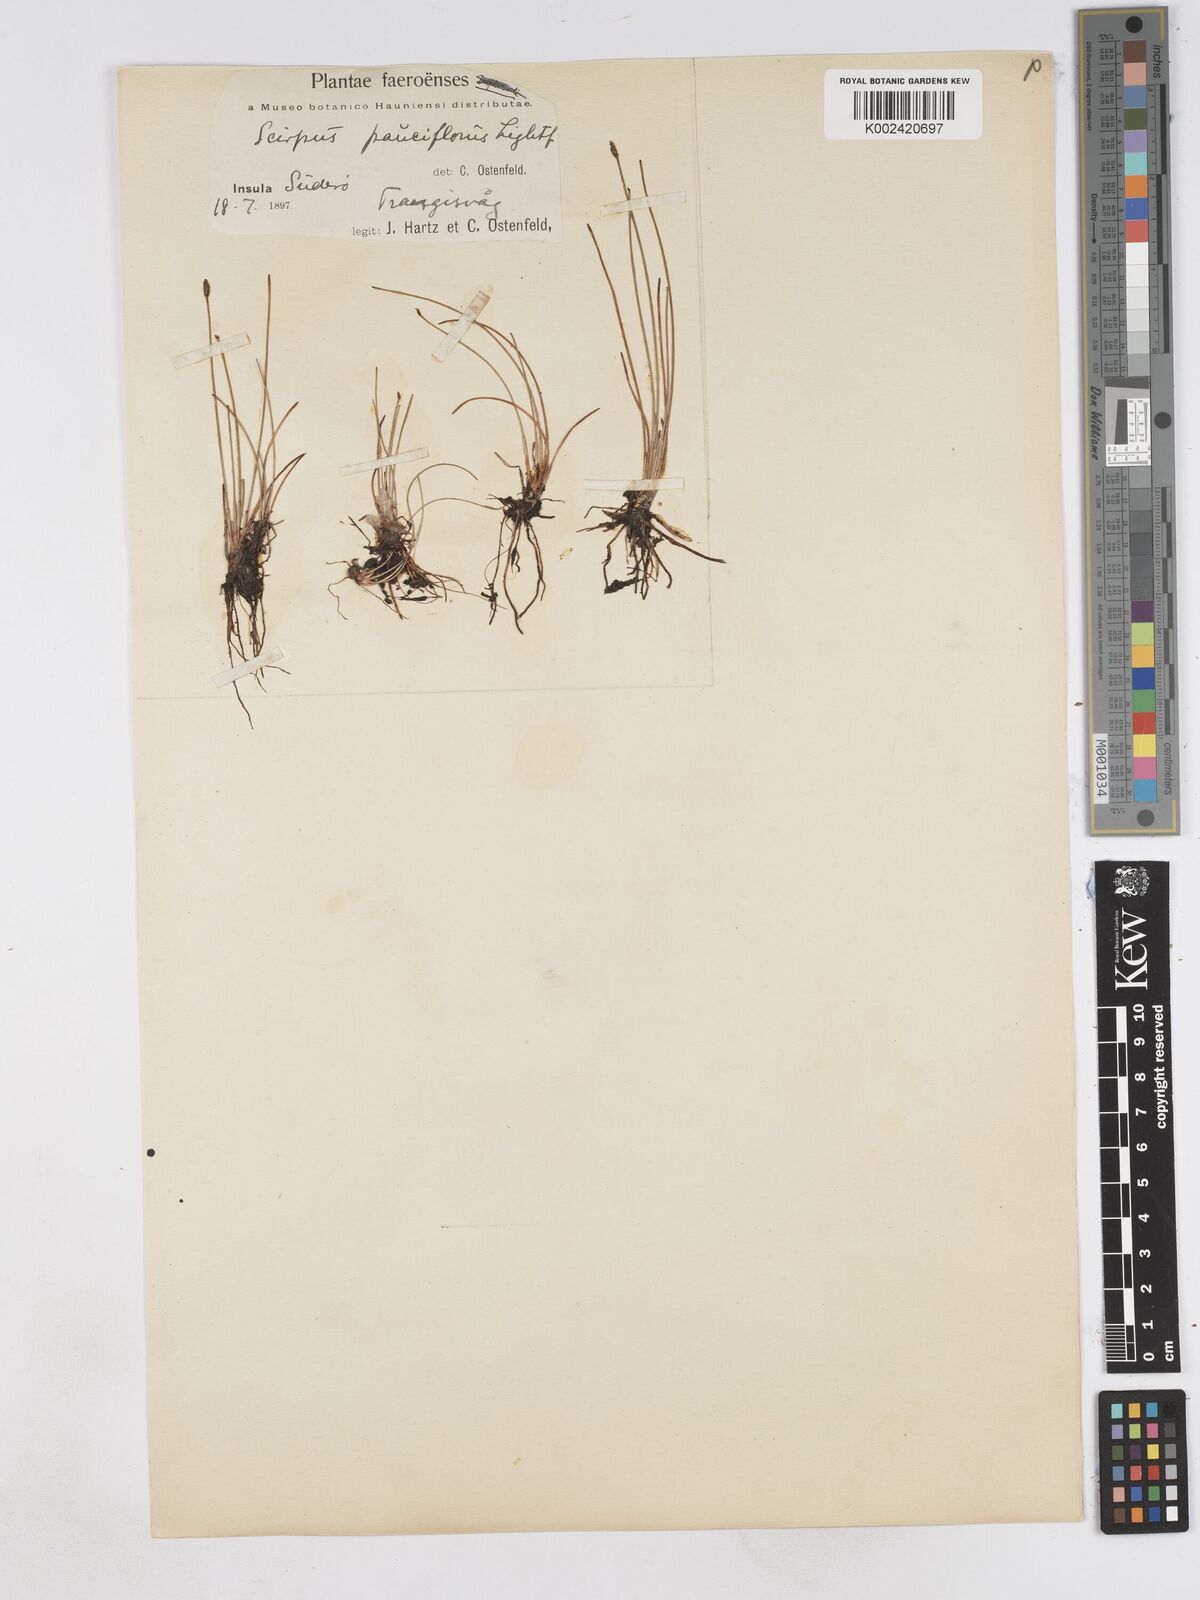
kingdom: Plantae
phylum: Tracheophyta
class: Liliopsida
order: Poales
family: Cyperaceae
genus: Eleocharis
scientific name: Eleocharis quinqueflora
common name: Few-flowered spike-rush
